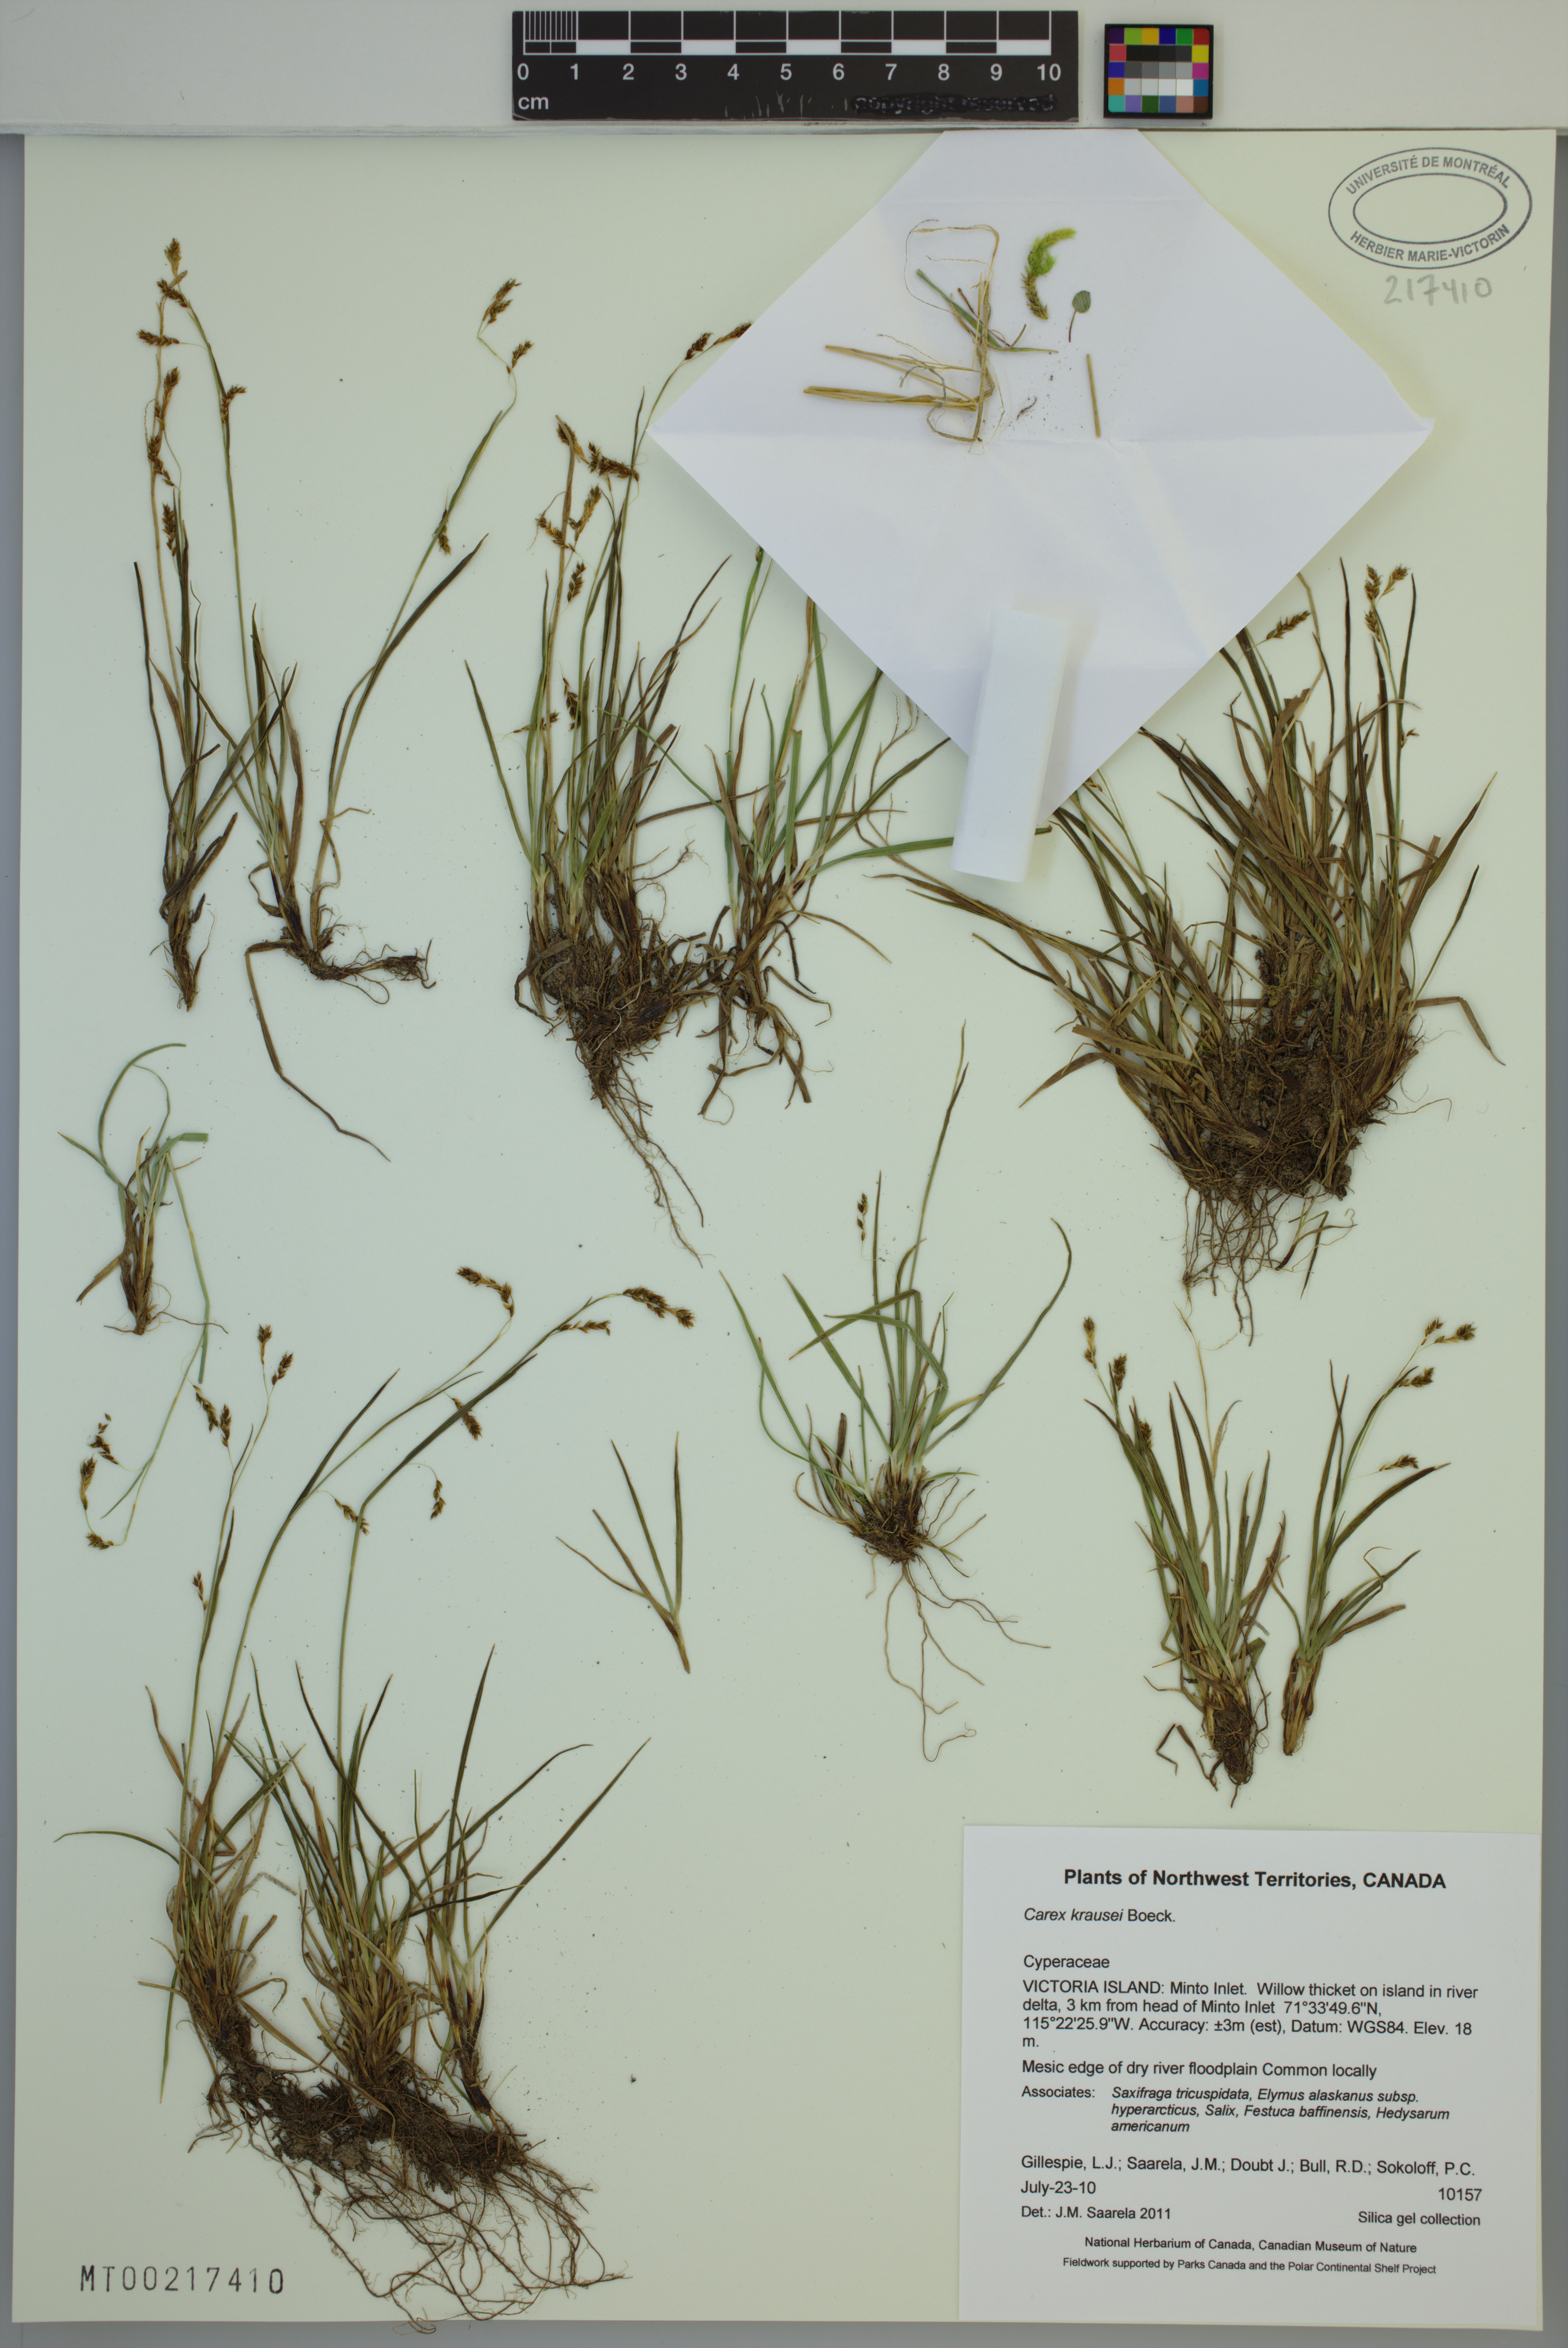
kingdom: Plantae
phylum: Tracheophyta
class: Liliopsida
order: Poales
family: Cyperaceae
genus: Carex
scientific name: Carex krausei
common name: Krause's sedge
